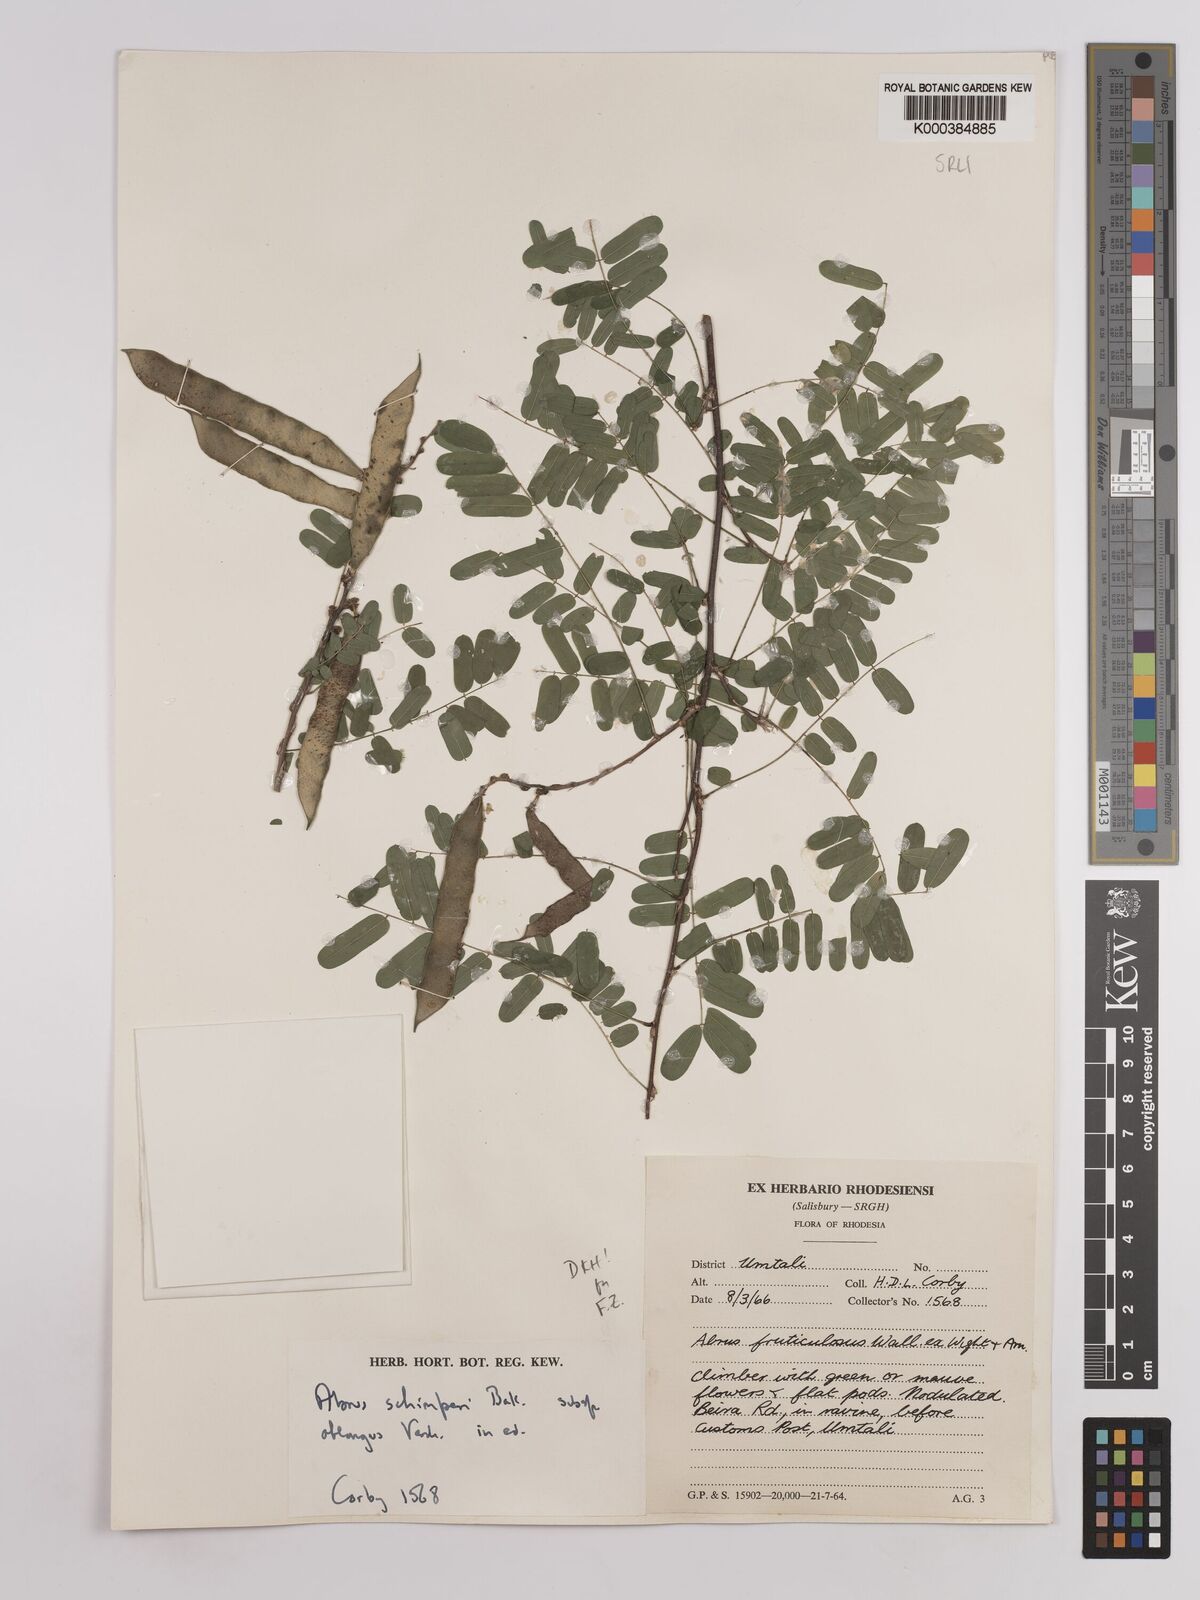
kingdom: Plantae
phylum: Tracheophyta
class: Magnoliopsida
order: Fabales
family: Fabaceae
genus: Abrus
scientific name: Abrus
